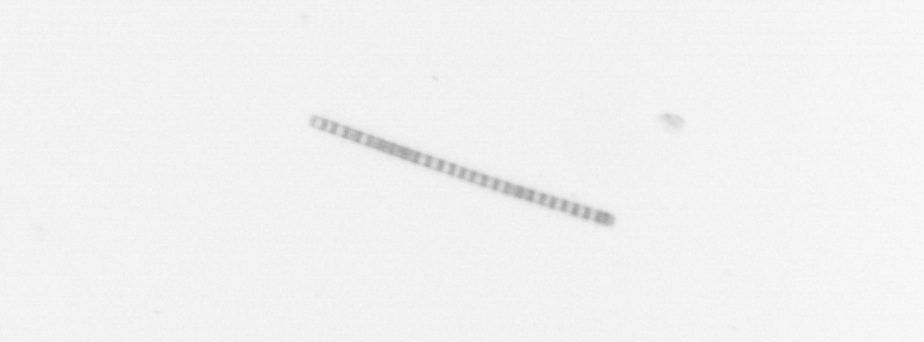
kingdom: Chromista
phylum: Ochrophyta
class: Bacillariophyceae
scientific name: Bacillariophyceae
